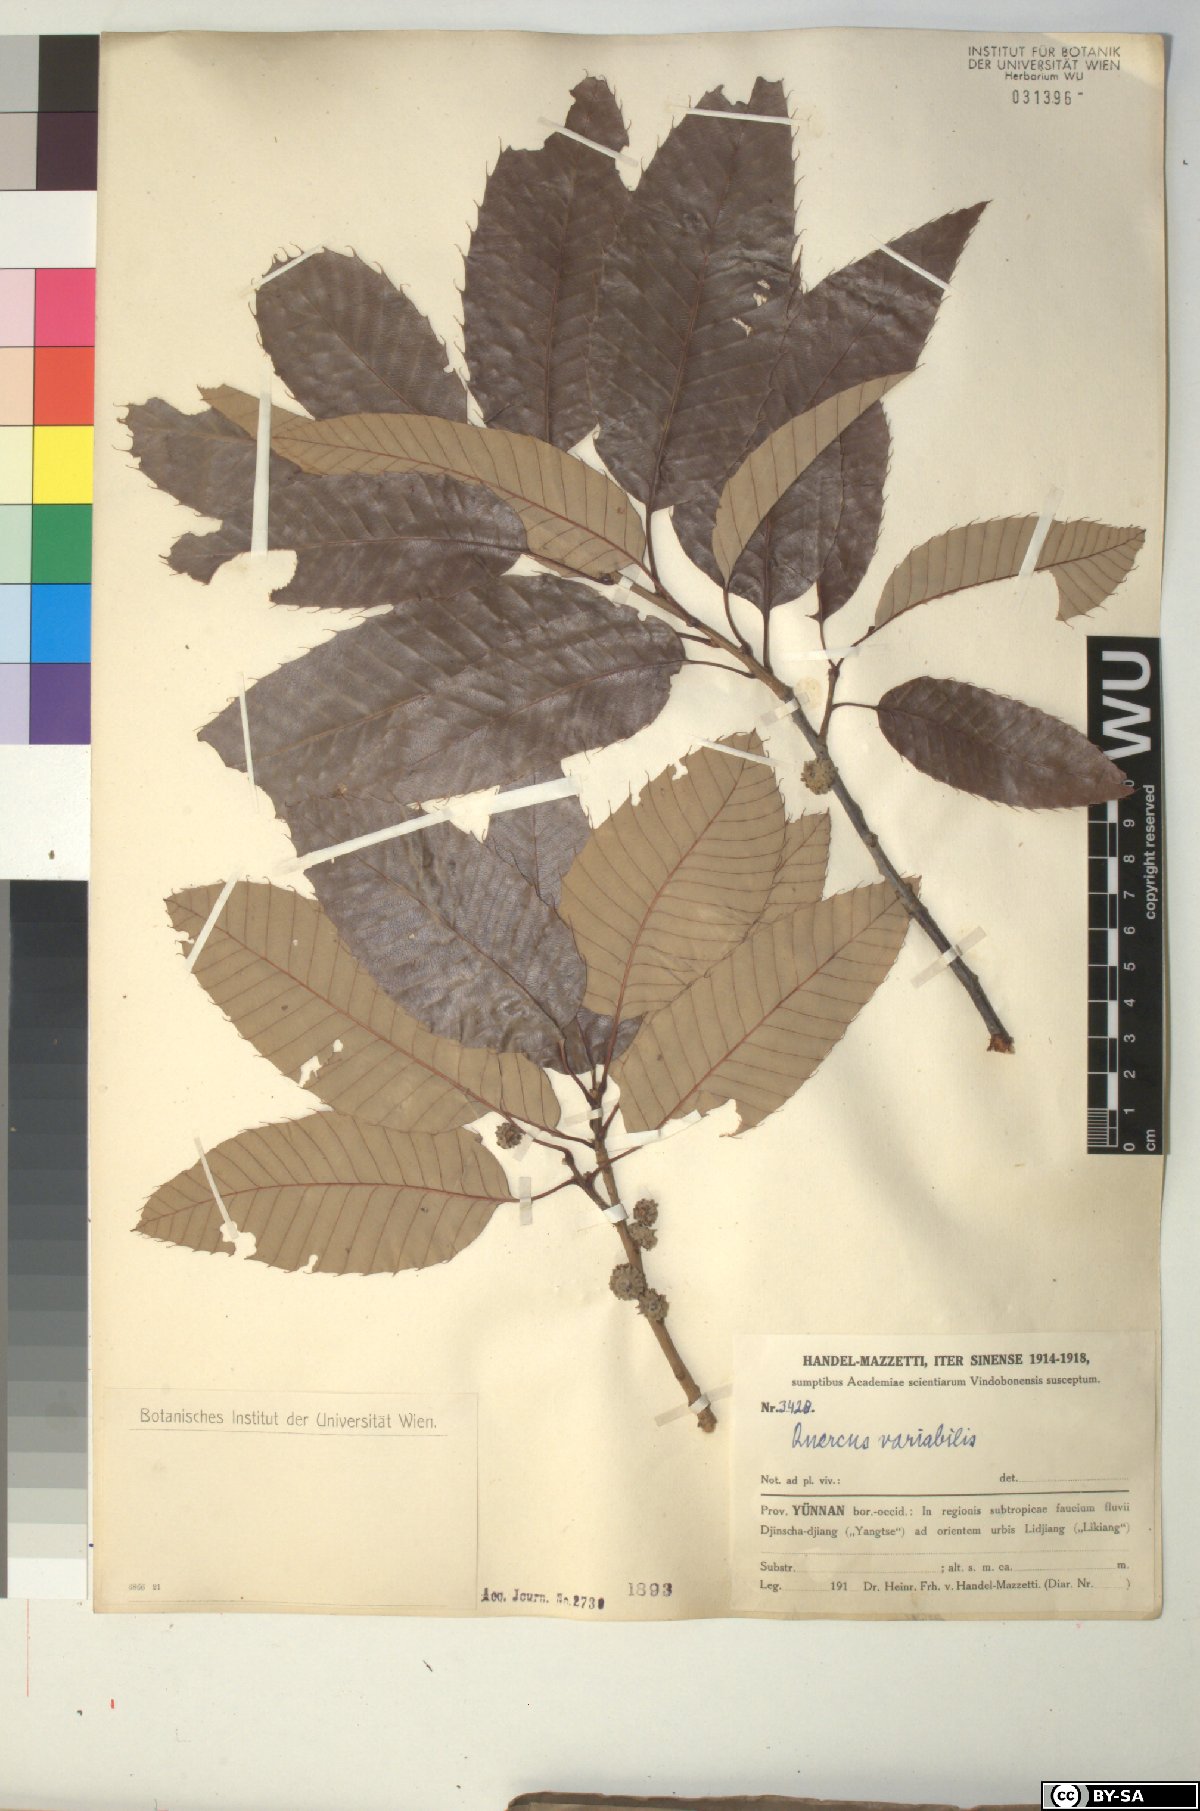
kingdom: Plantae
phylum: Tracheophyta
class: Magnoliopsida
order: Fagales
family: Fagaceae
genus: Quercus
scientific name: Quercus variabilis
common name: Chinese cork oak
